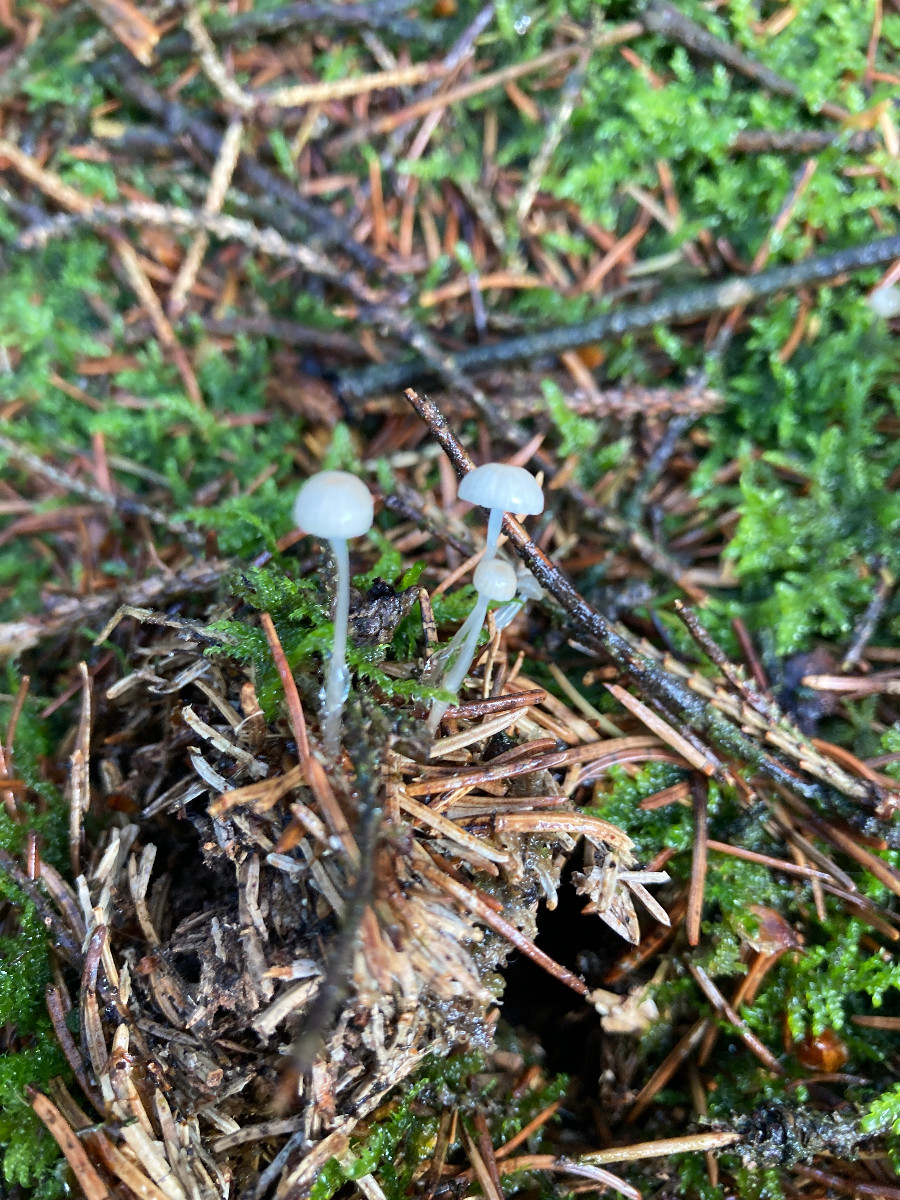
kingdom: Fungi
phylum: Basidiomycota
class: Agaricomycetes
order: Agaricales
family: Mycenaceae
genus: Roridomyces
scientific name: Roridomyces roridus
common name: slimfod
